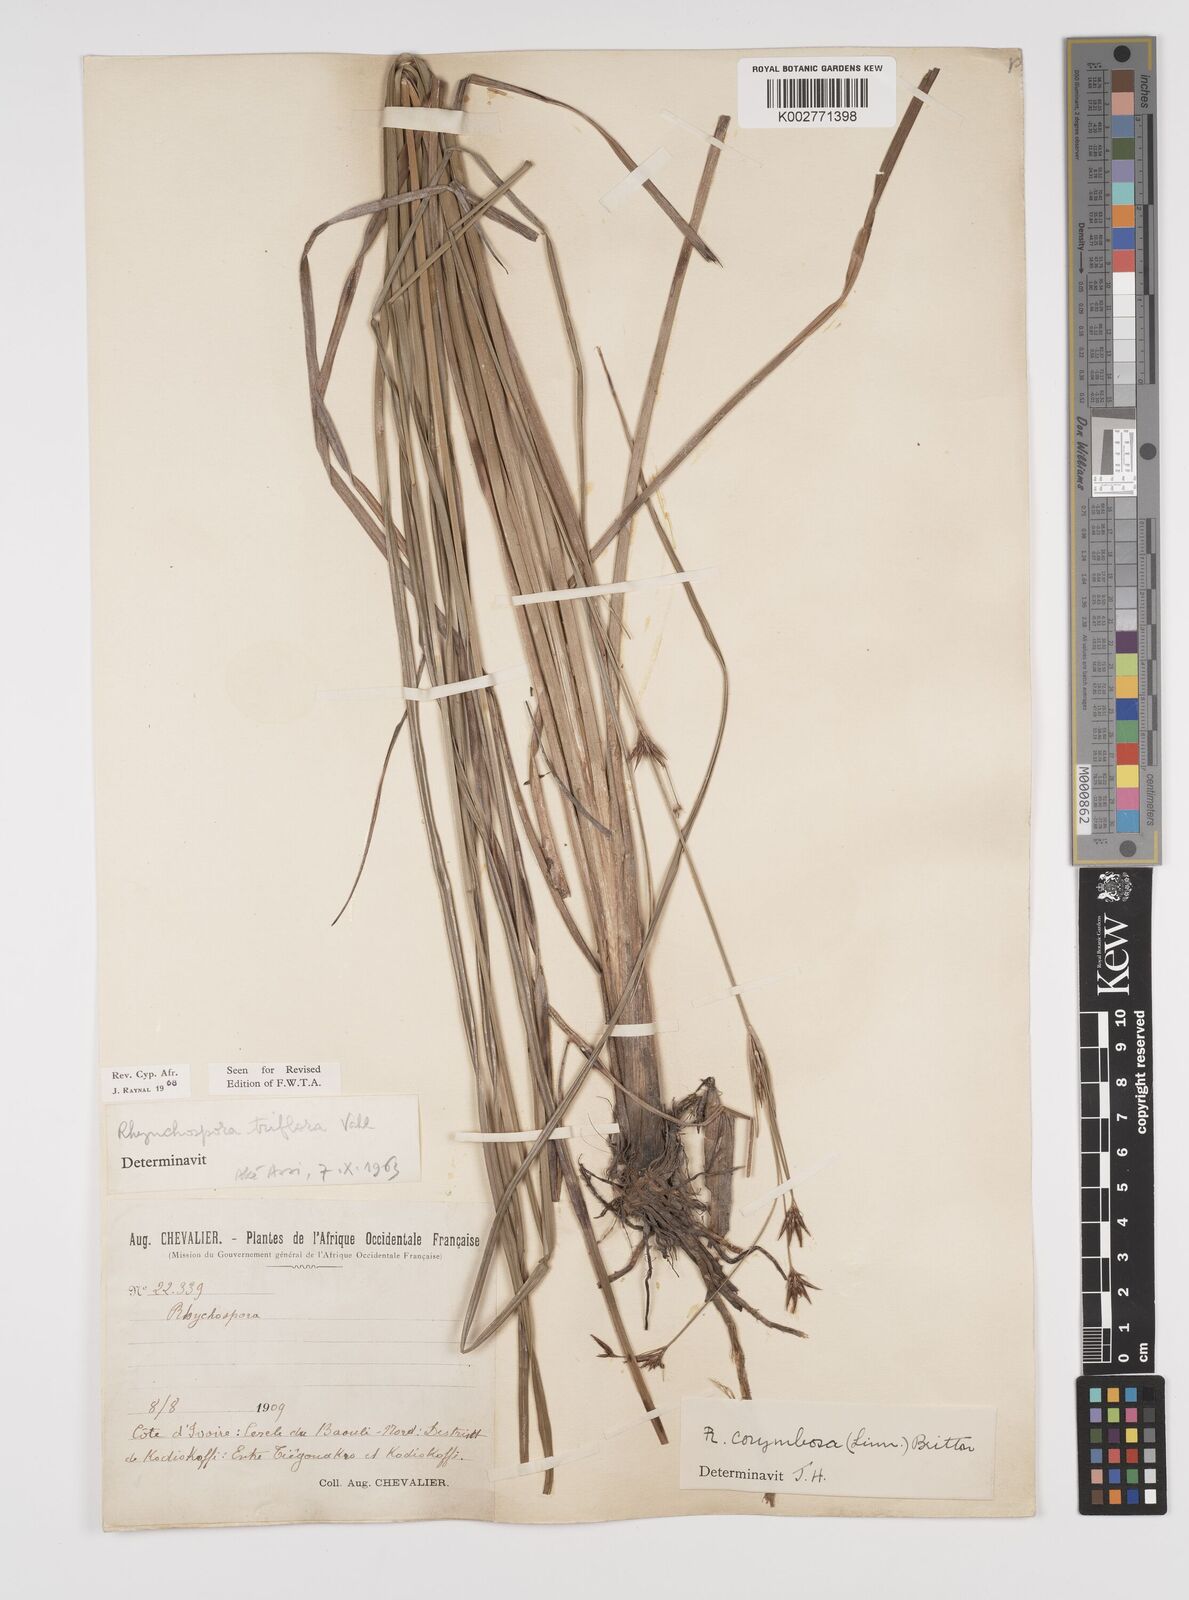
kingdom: Plantae
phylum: Tracheophyta
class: Liliopsida
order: Poales
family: Cyperaceae
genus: Rhynchospora
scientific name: Rhynchospora triflora
